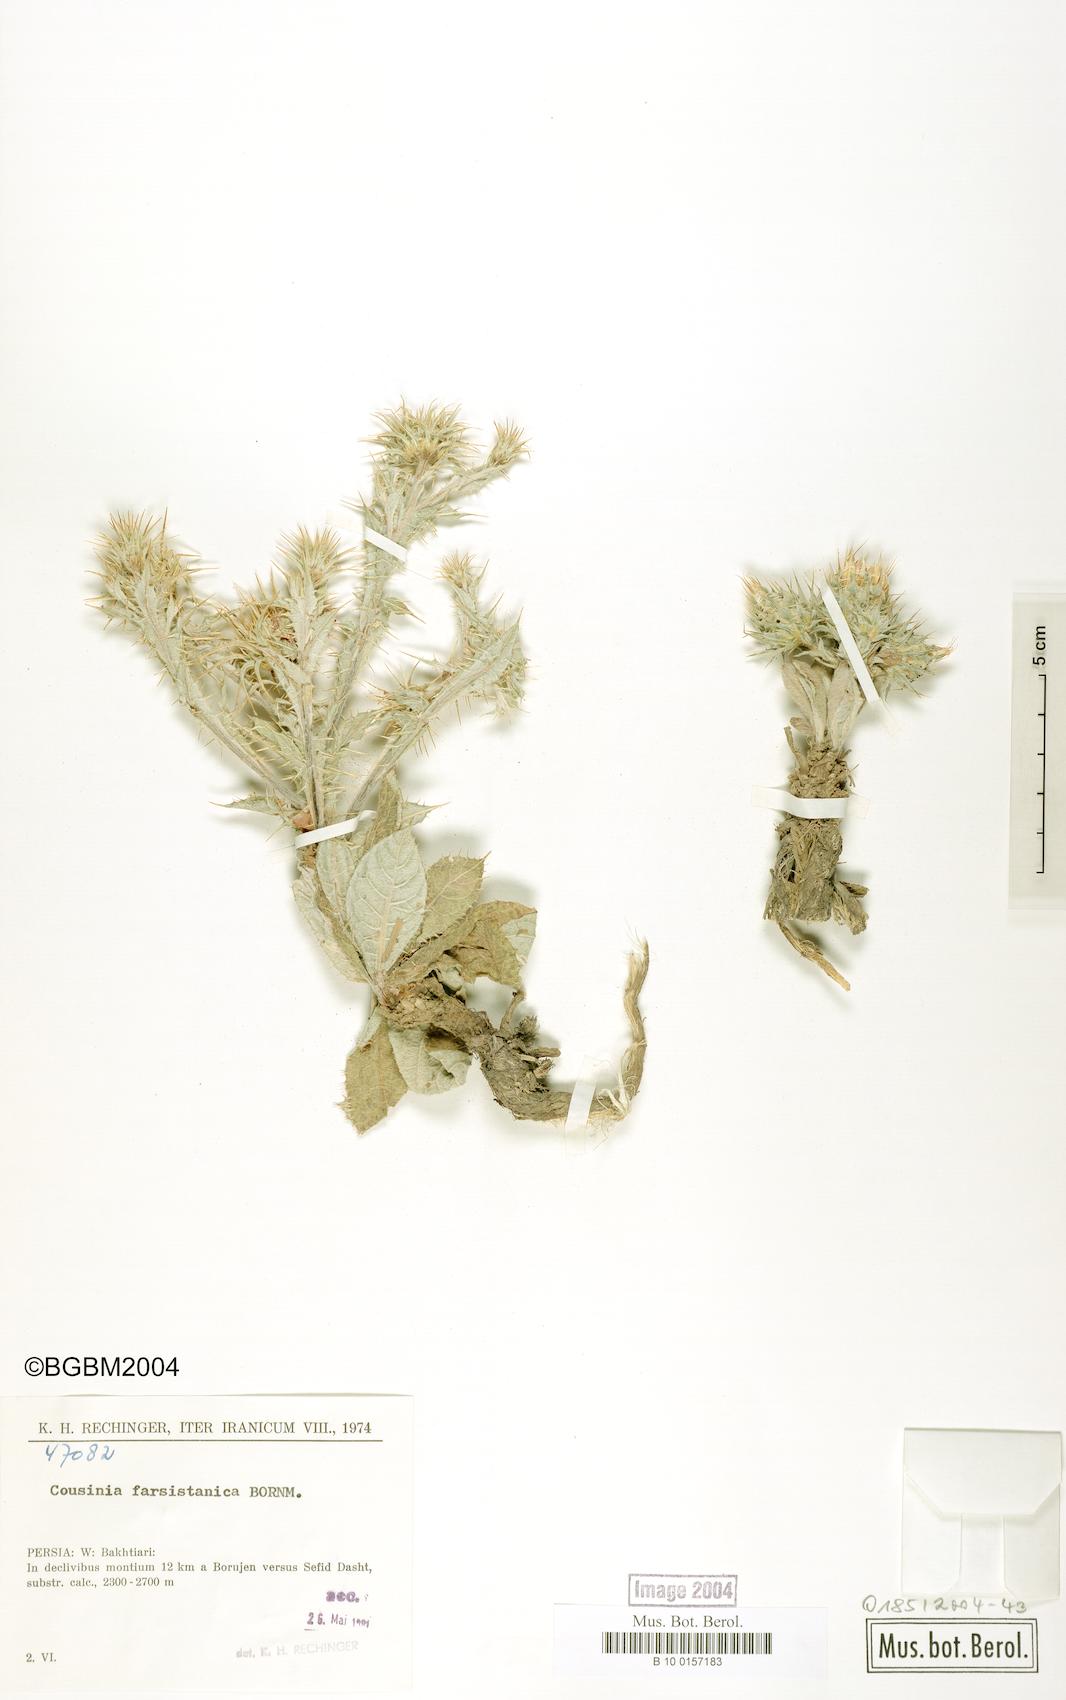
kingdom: Plantae
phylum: Tracheophyta
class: Magnoliopsida
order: Asterales
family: Asteraceae
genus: Cousinia
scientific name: Cousinia farsistanica
